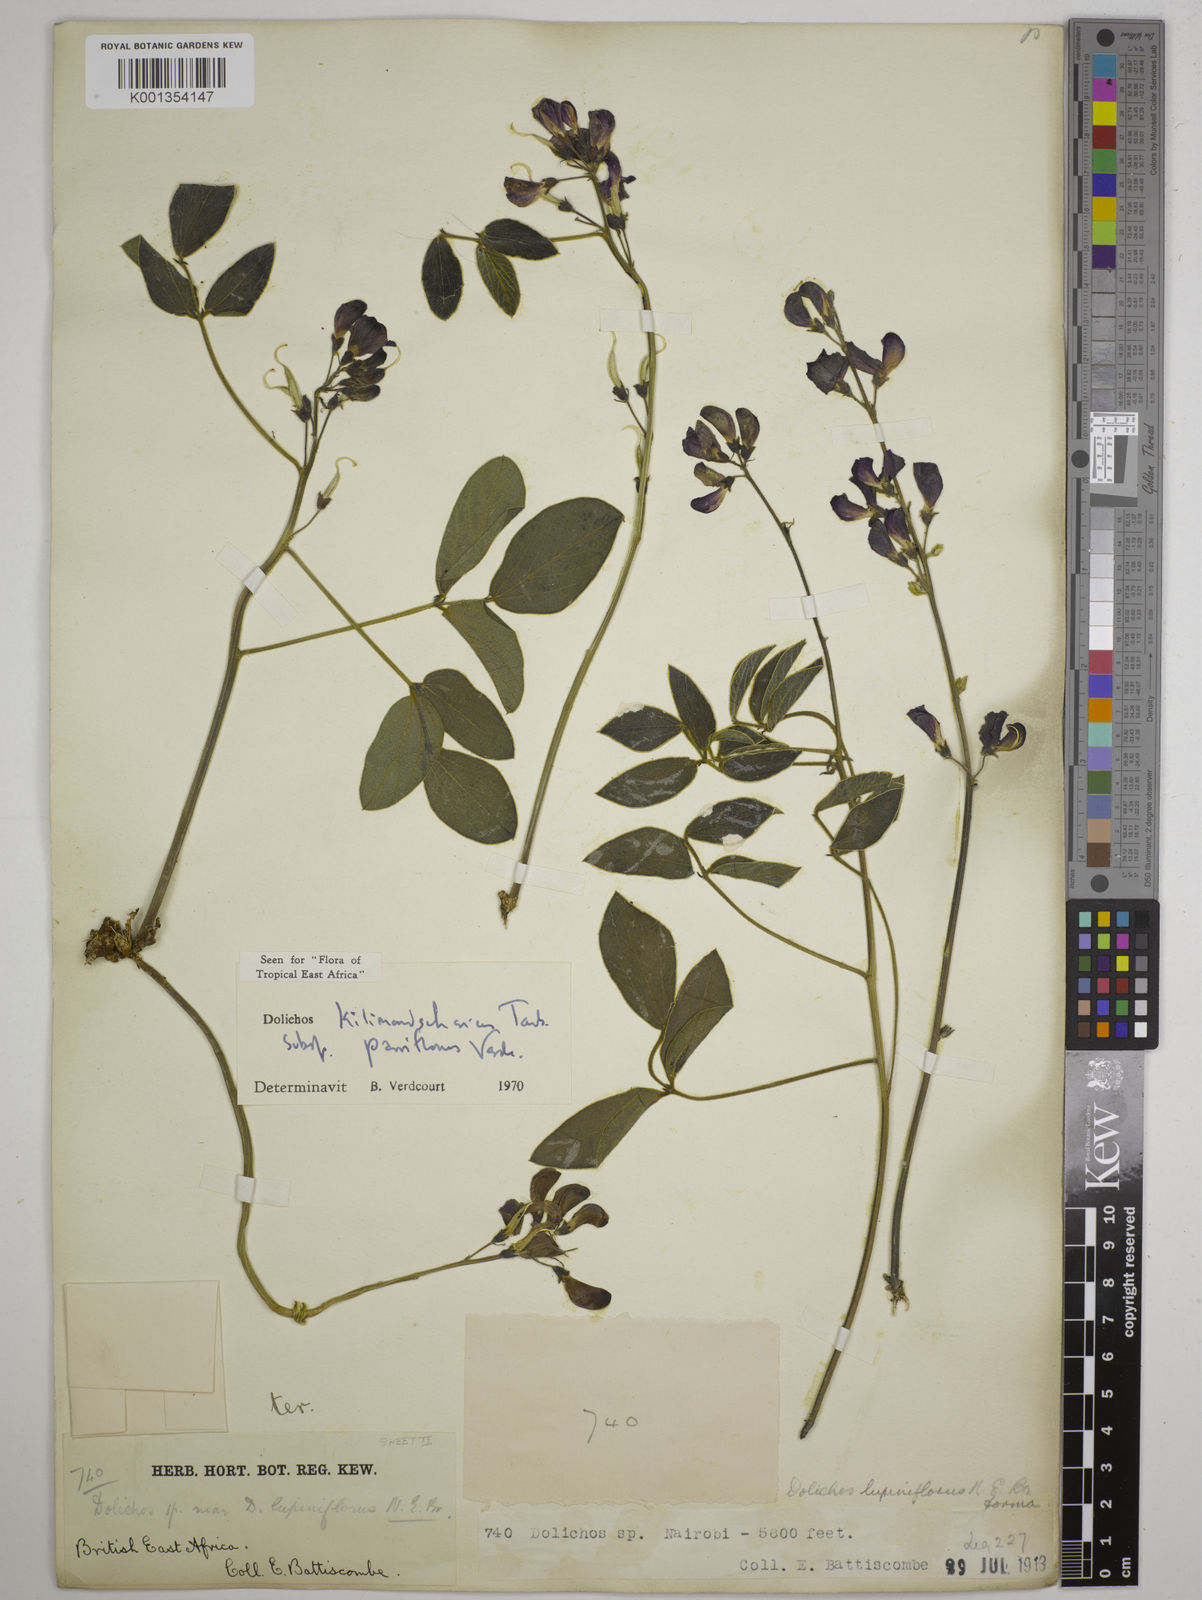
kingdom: Plantae
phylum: Tracheophyta
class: Magnoliopsida
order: Fabales
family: Fabaceae
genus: Dolichos
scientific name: Dolichos
